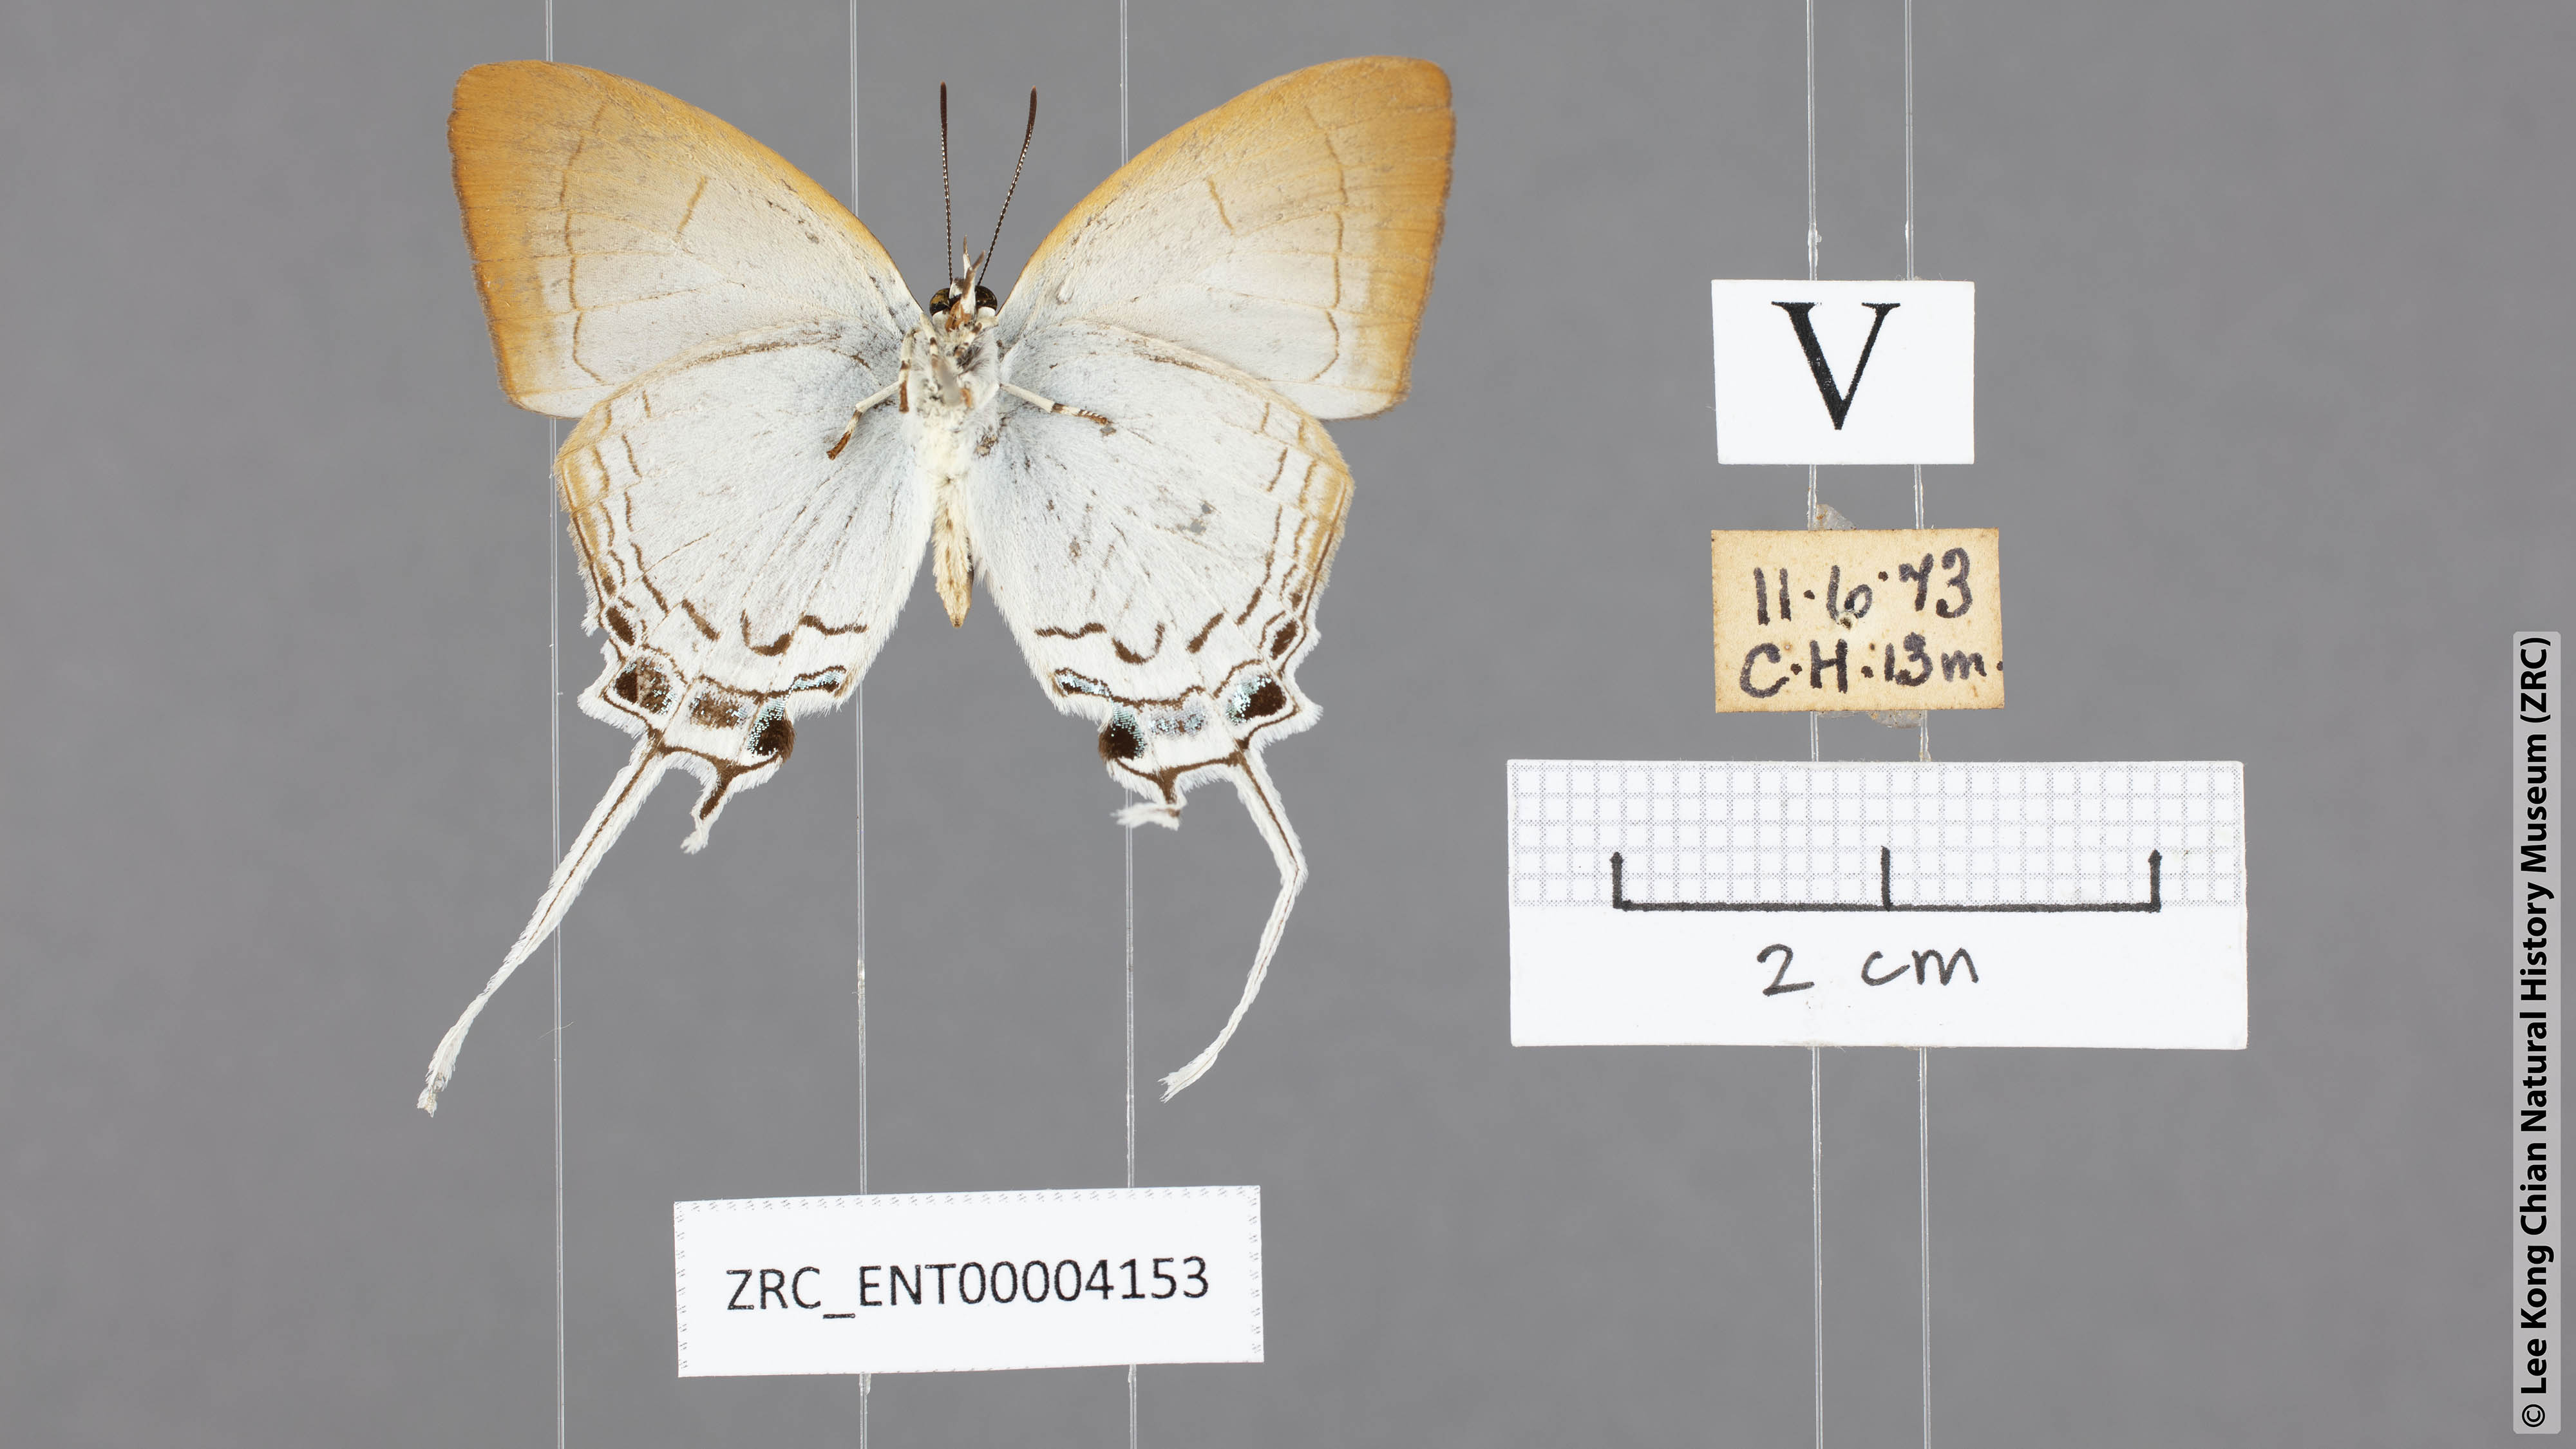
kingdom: Animalia
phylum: Arthropoda
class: Insecta
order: Lepidoptera
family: Lycaenidae
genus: Cheritra
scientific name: Cheritra freja
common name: Common imperial
